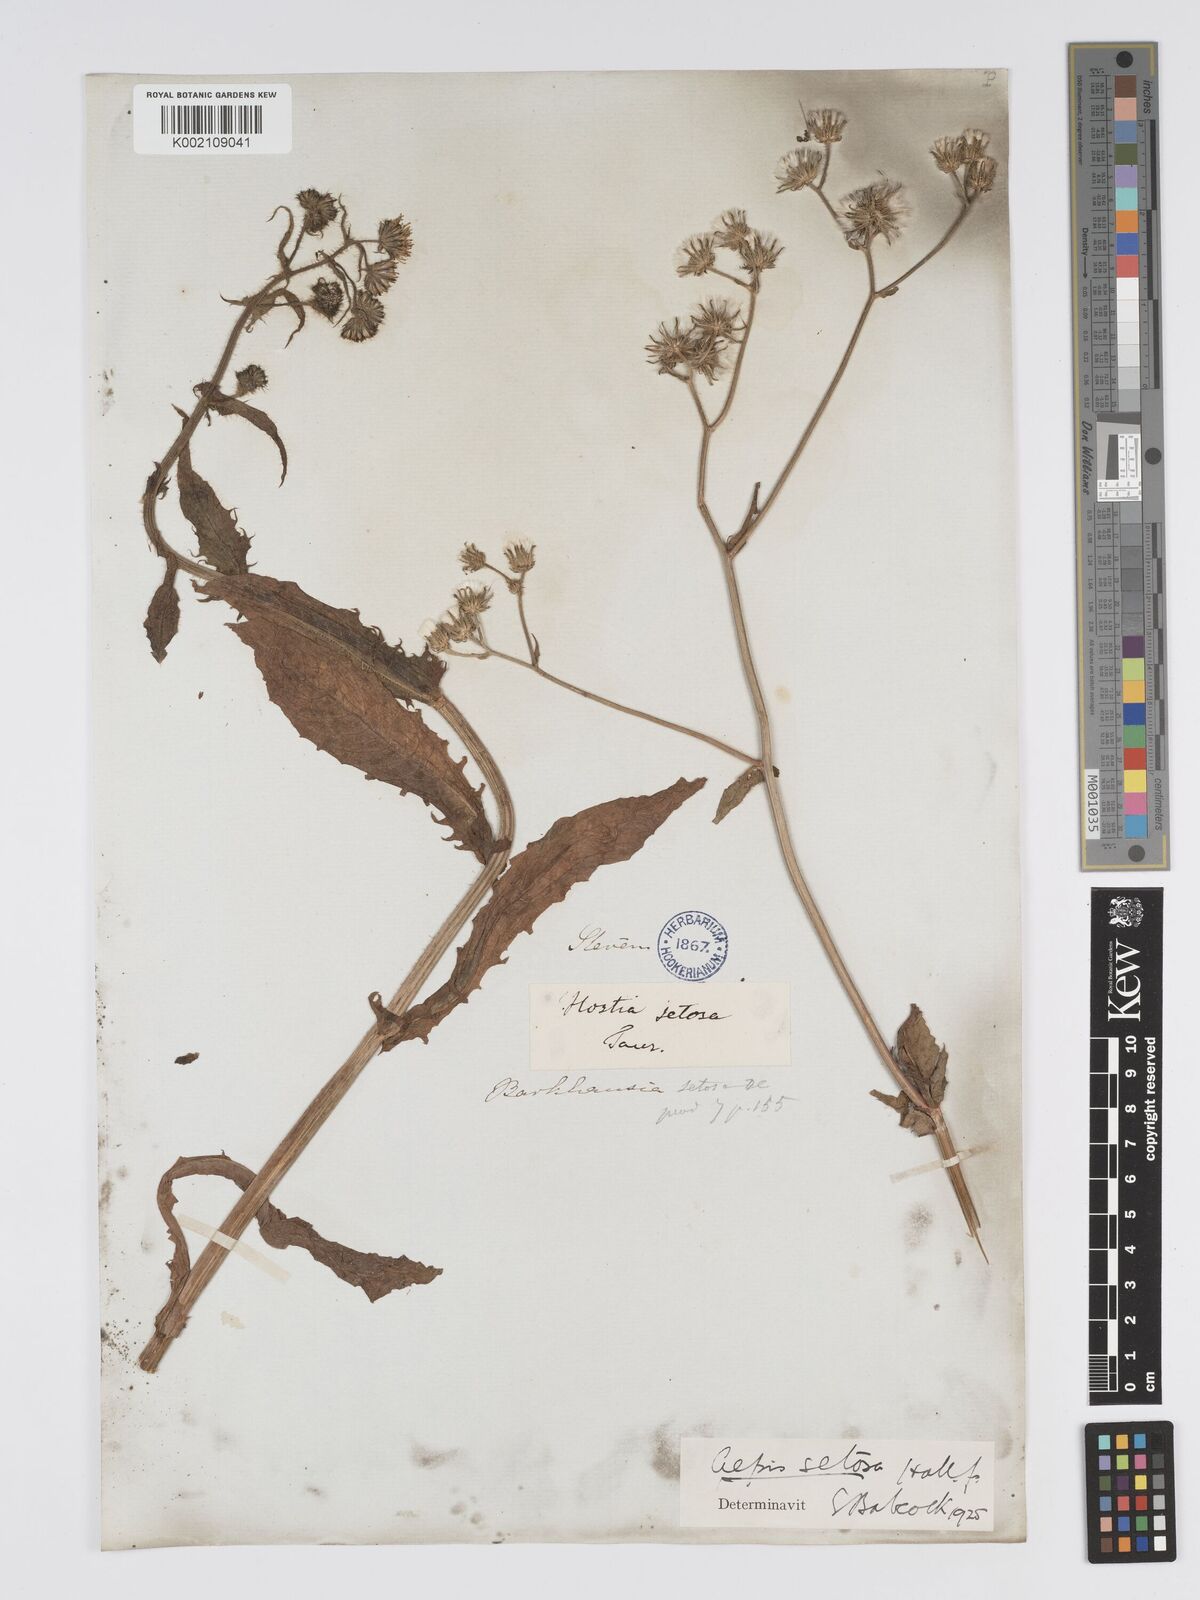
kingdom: Plantae
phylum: Tracheophyta
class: Magnoliopsida
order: Asterales
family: Asteraceae
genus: Crepis
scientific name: Crepis setosa
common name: Bristly hawk's-beard
